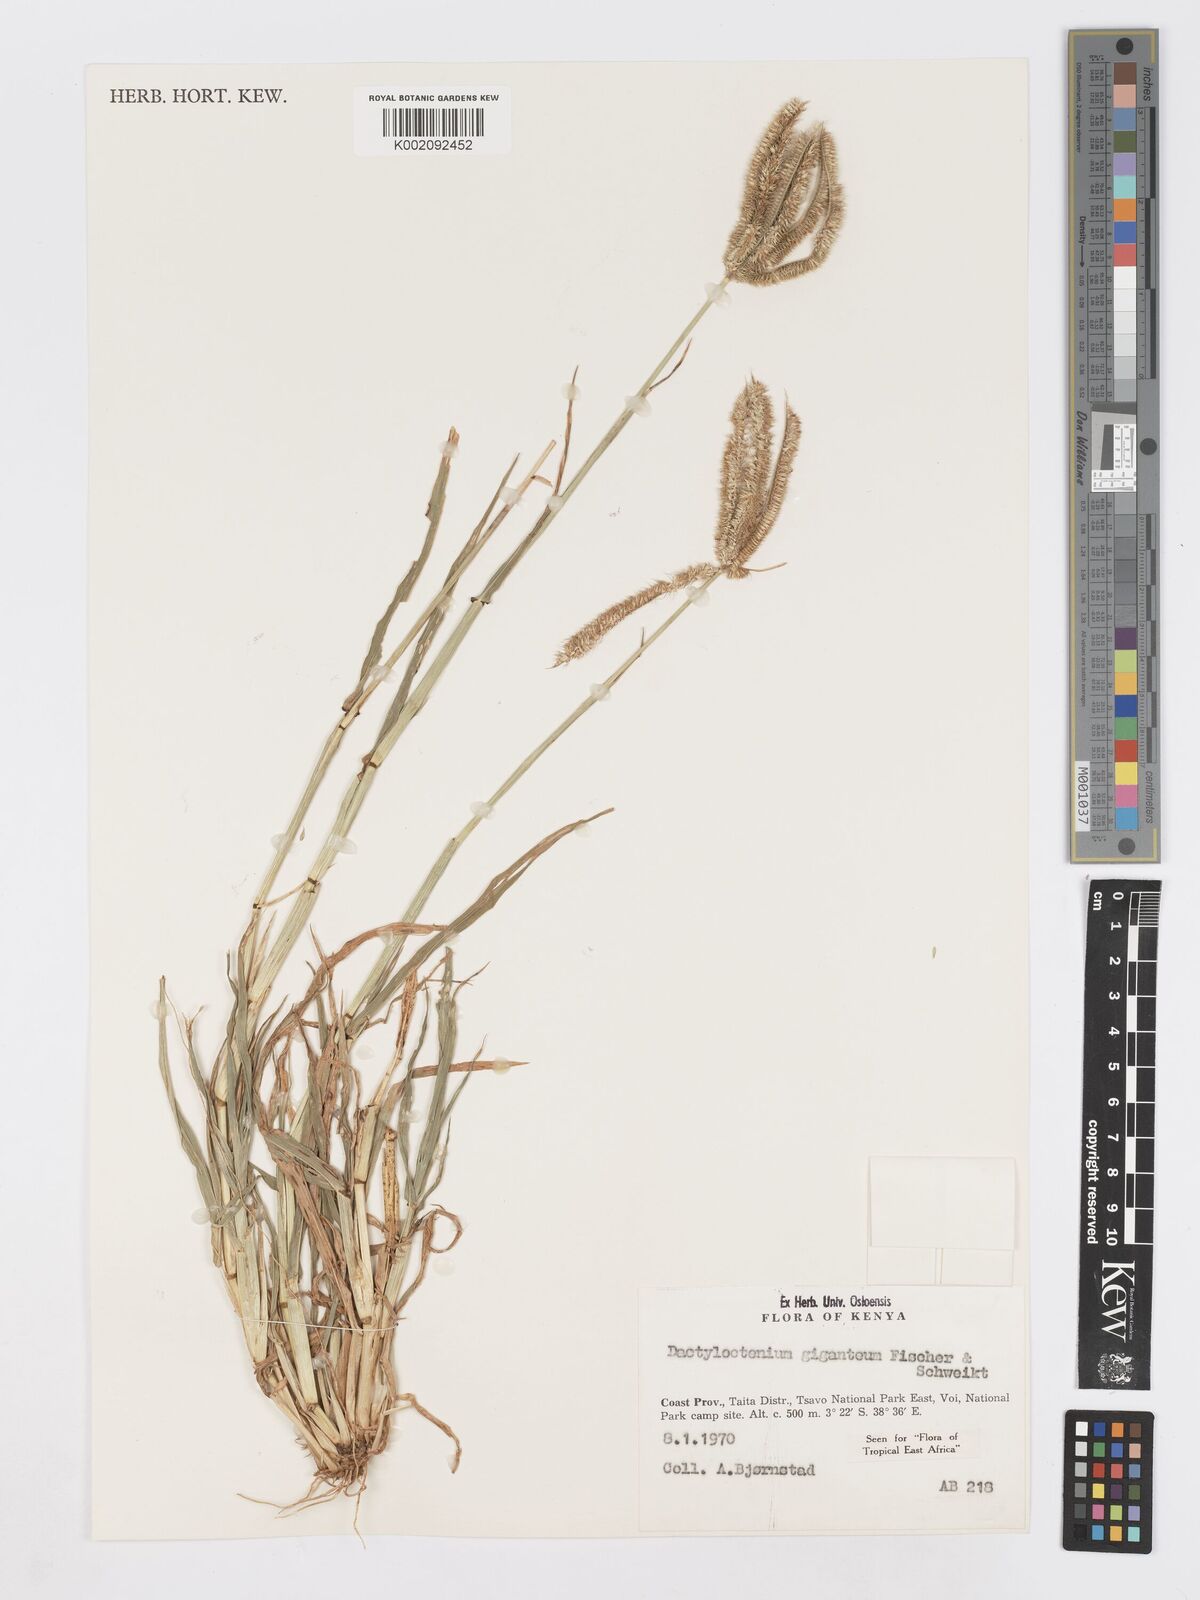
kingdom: Plantae
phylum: Tracheophyta
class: Liliopsida
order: Poales
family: Poaceae
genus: Dactyloctenium
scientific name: Dactyloctenium giganteum
